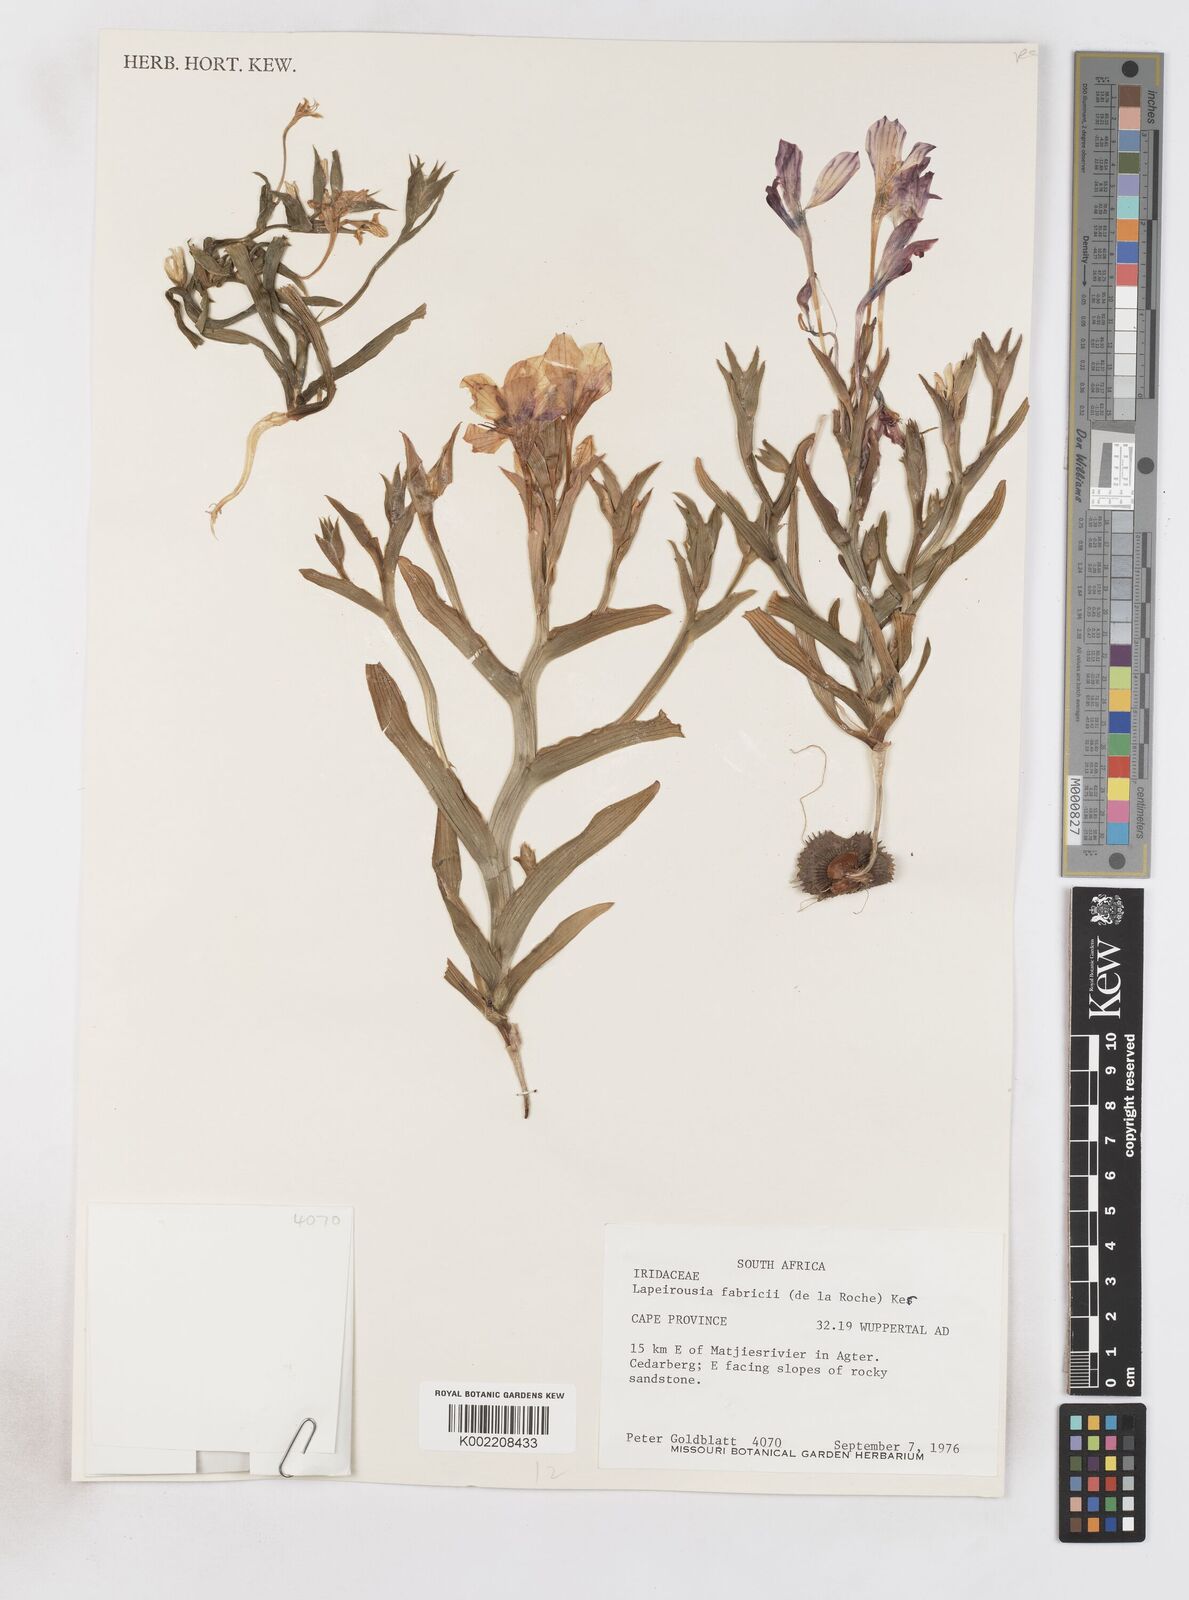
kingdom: Plantae
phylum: Tracheophyta
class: Liliopsida
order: Asparagales
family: Iridaceae
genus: Lapeirousia
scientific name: Lapeirousia fabricii
